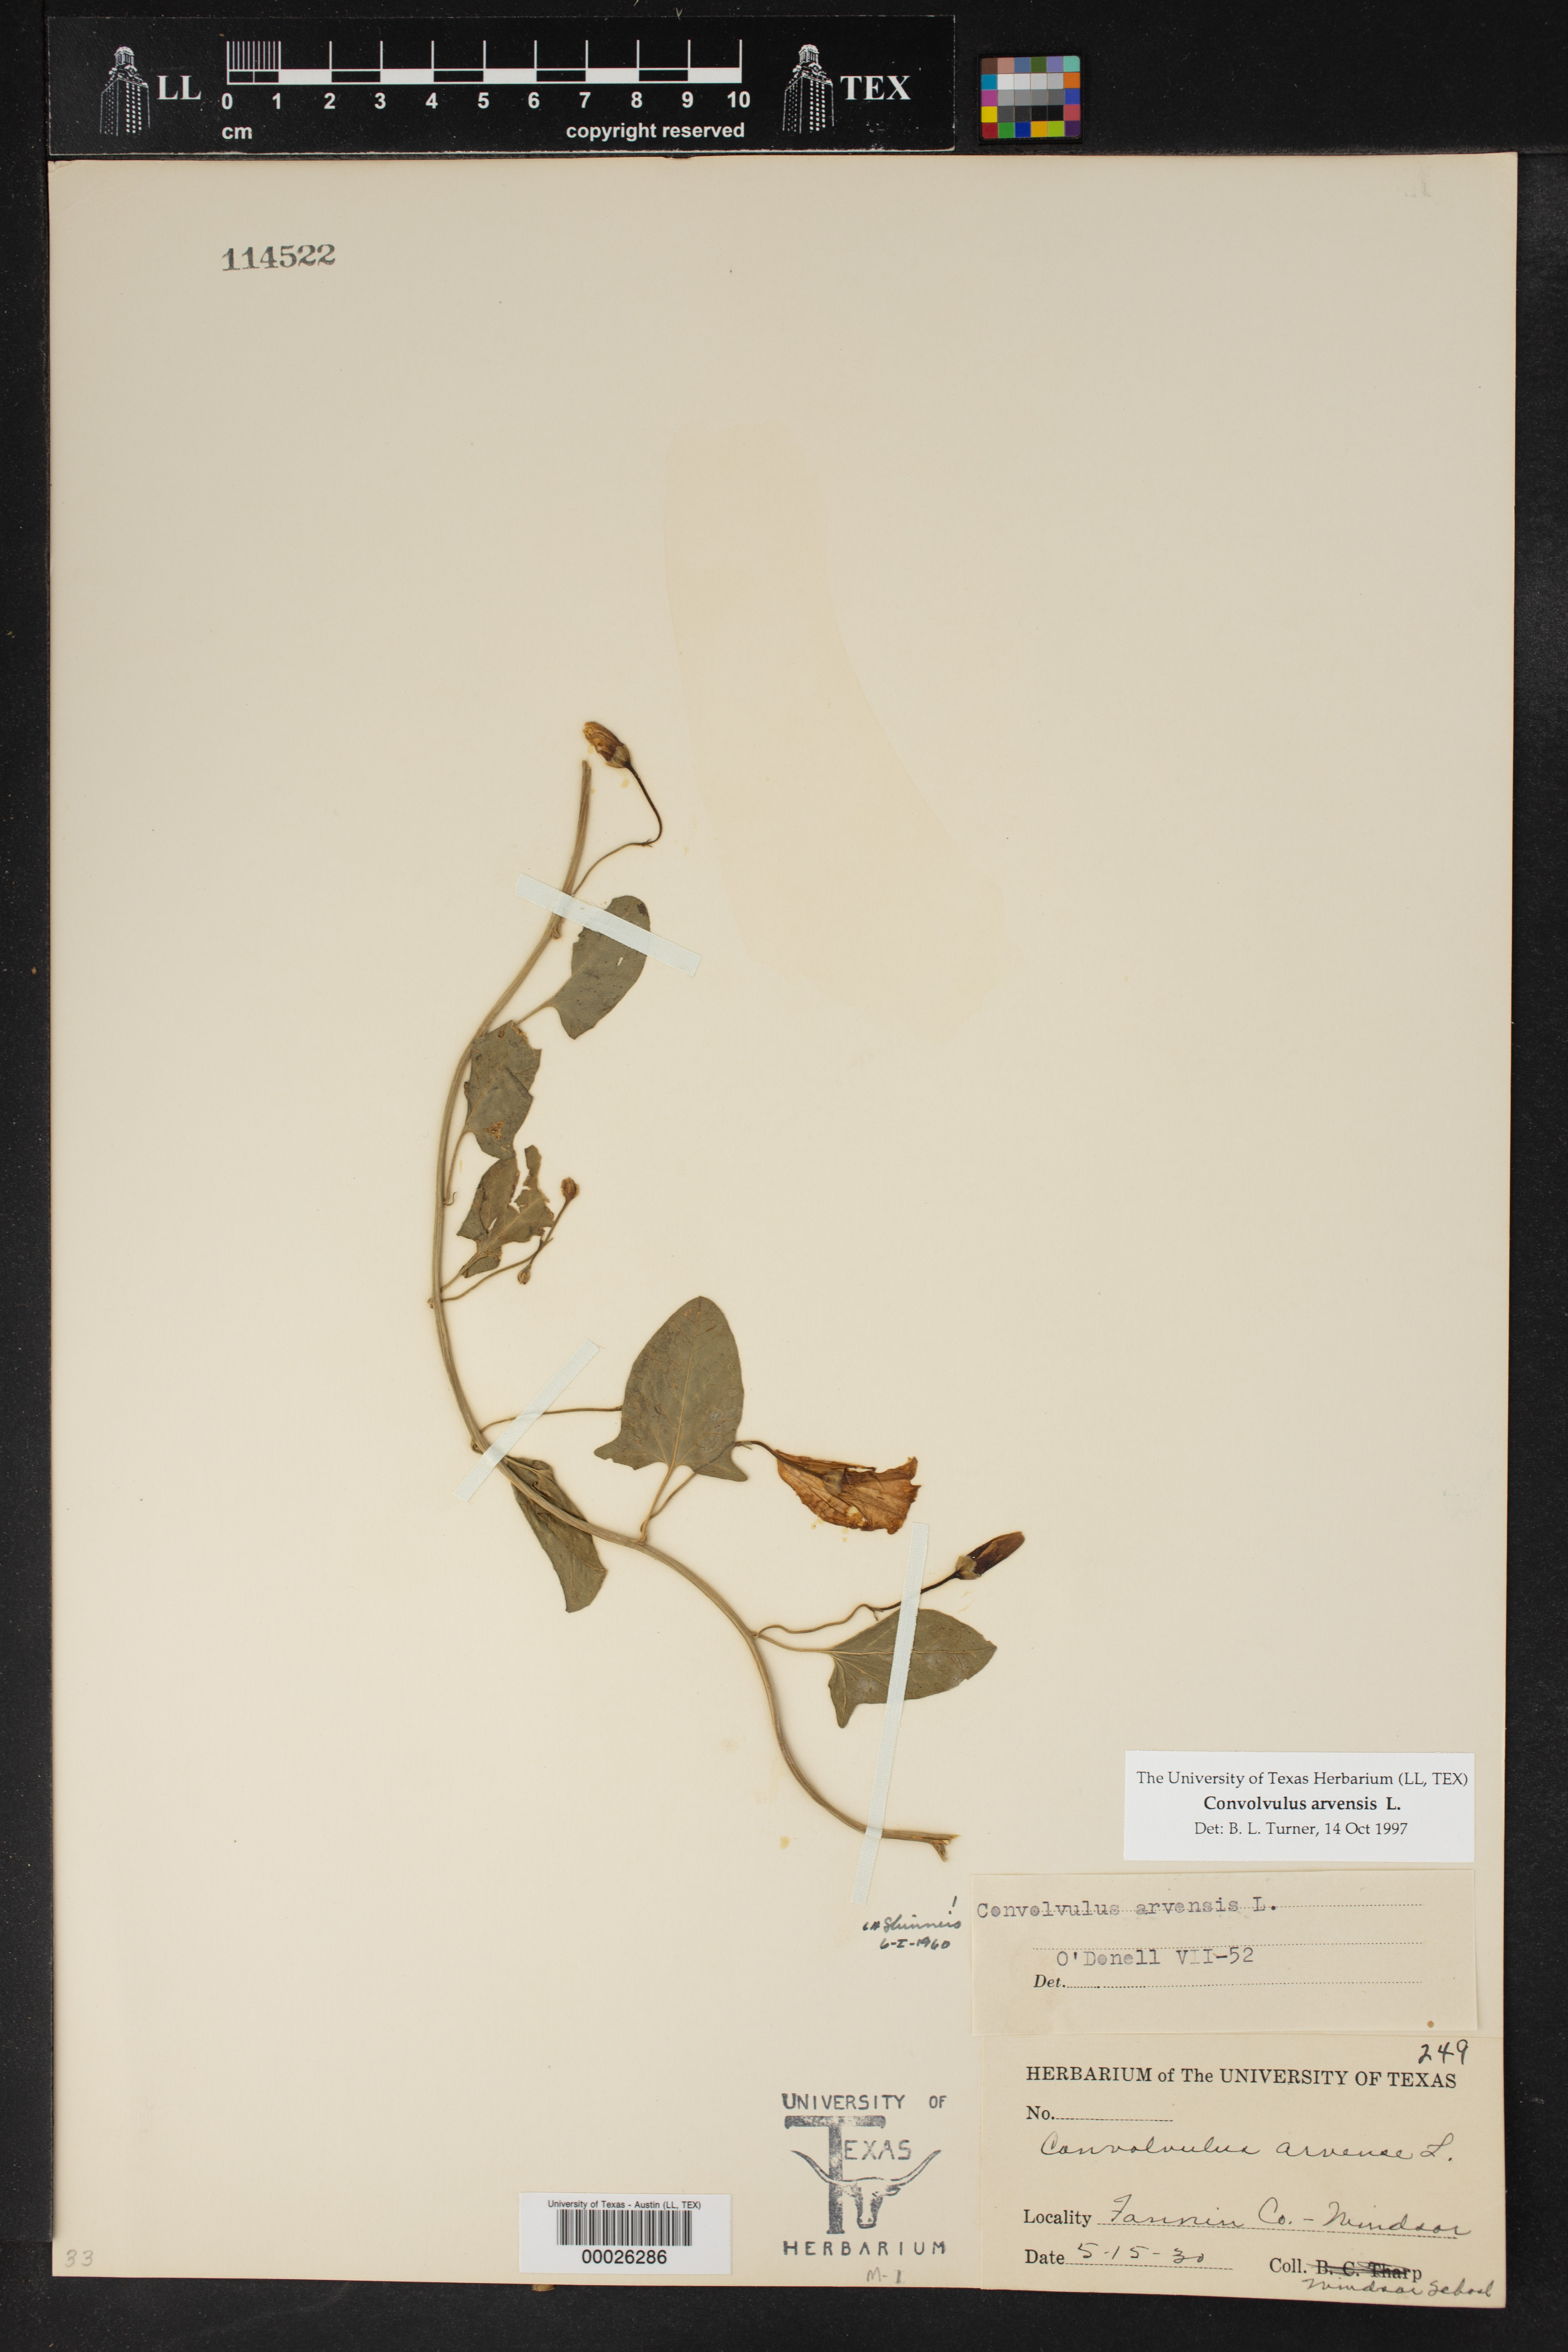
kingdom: Plantae
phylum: Tracheophyta
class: Magnoliopsida
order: Solanales
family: Convolvulaceae
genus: Convolvulus
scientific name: Convolvulus arvensis
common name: Field bindweed
